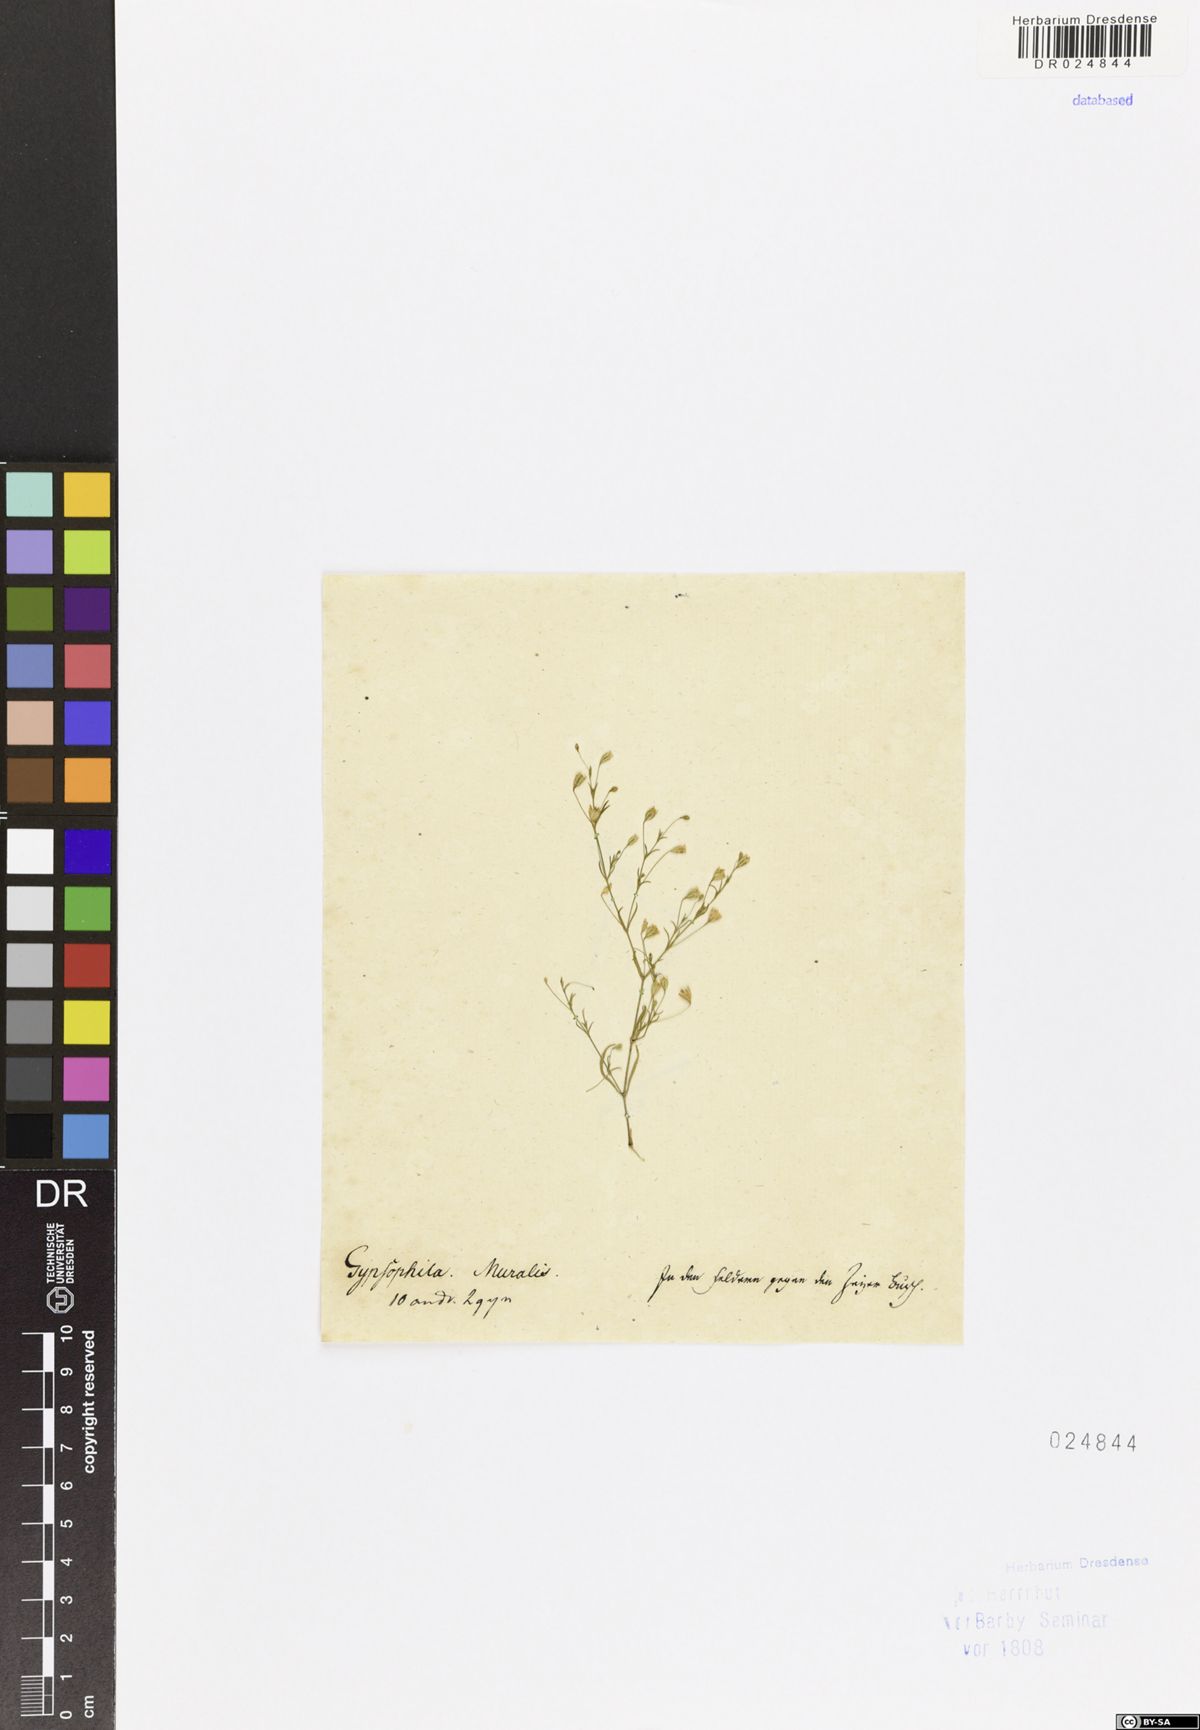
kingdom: Plantae
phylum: Tracheophyta
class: Magnoliopsida
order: Caryophyllales
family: Caryophyllaceae
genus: Psammophiliella
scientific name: Psammophiliella muralis
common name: Cushion baby's-breath
